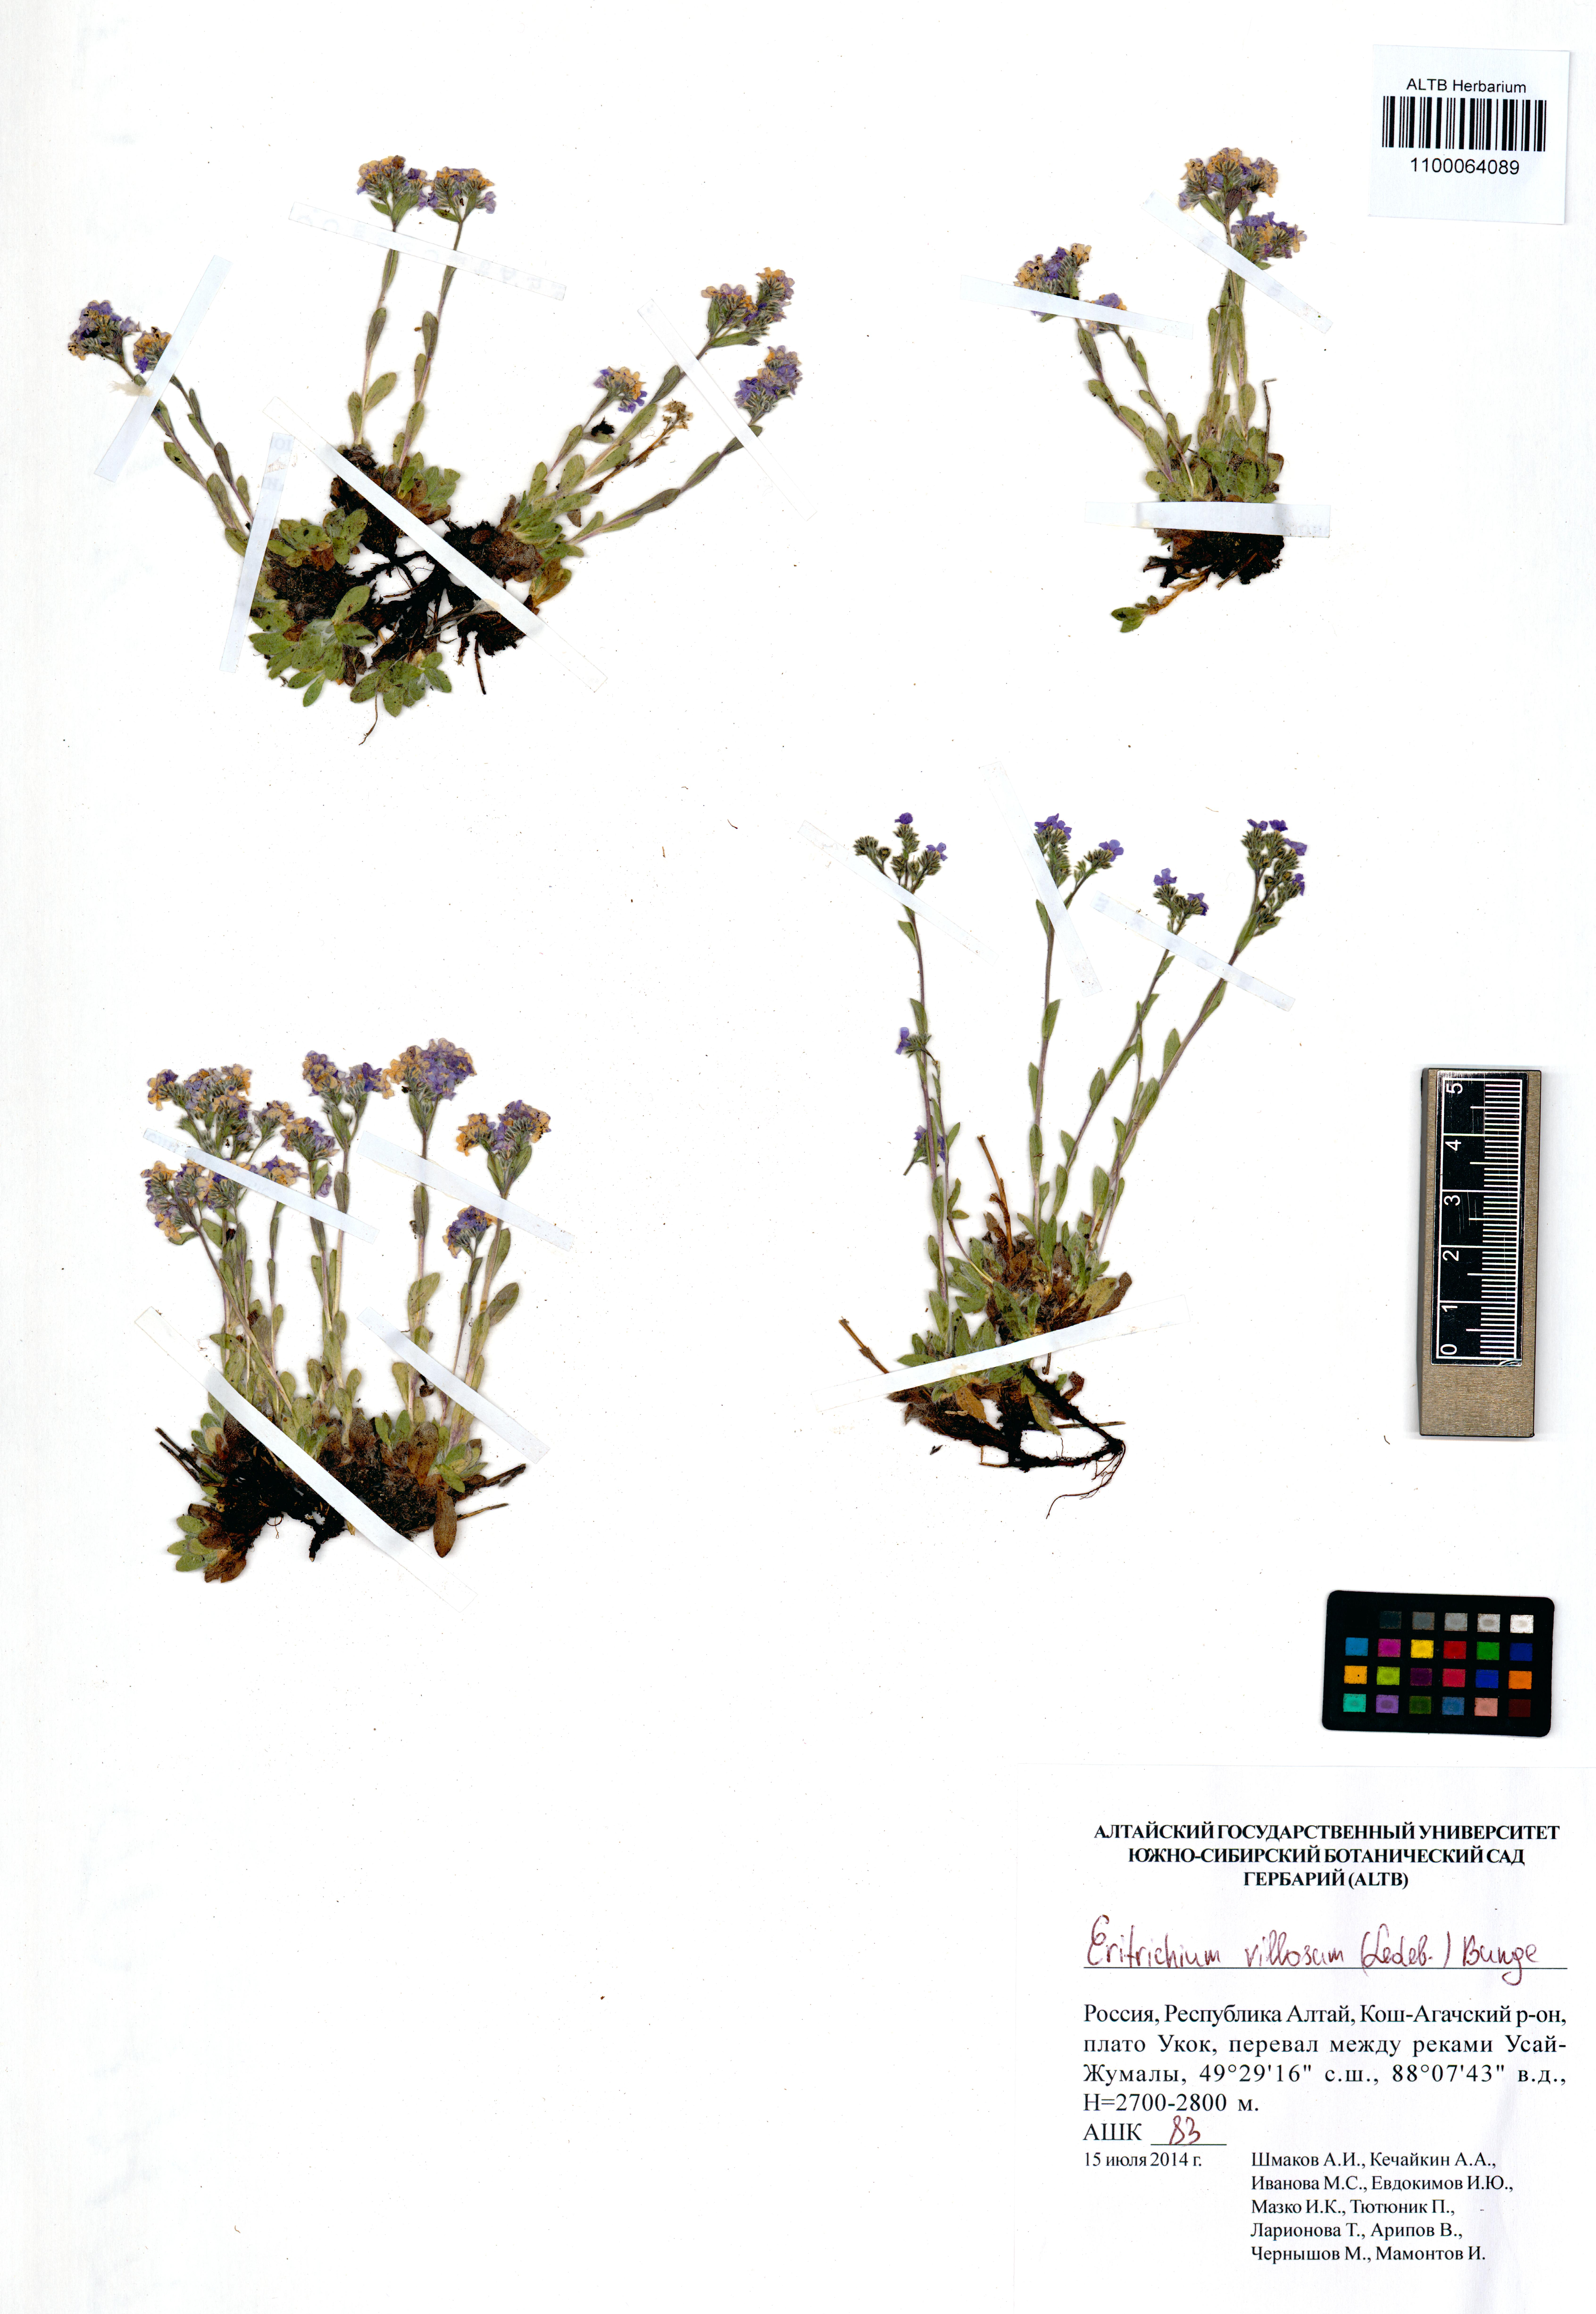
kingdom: Plantae
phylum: Tracheophyta
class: Magnoliopsida
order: Boraginales
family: Boraginaceae
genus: Eritrichium
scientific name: Eritrichium villosum
